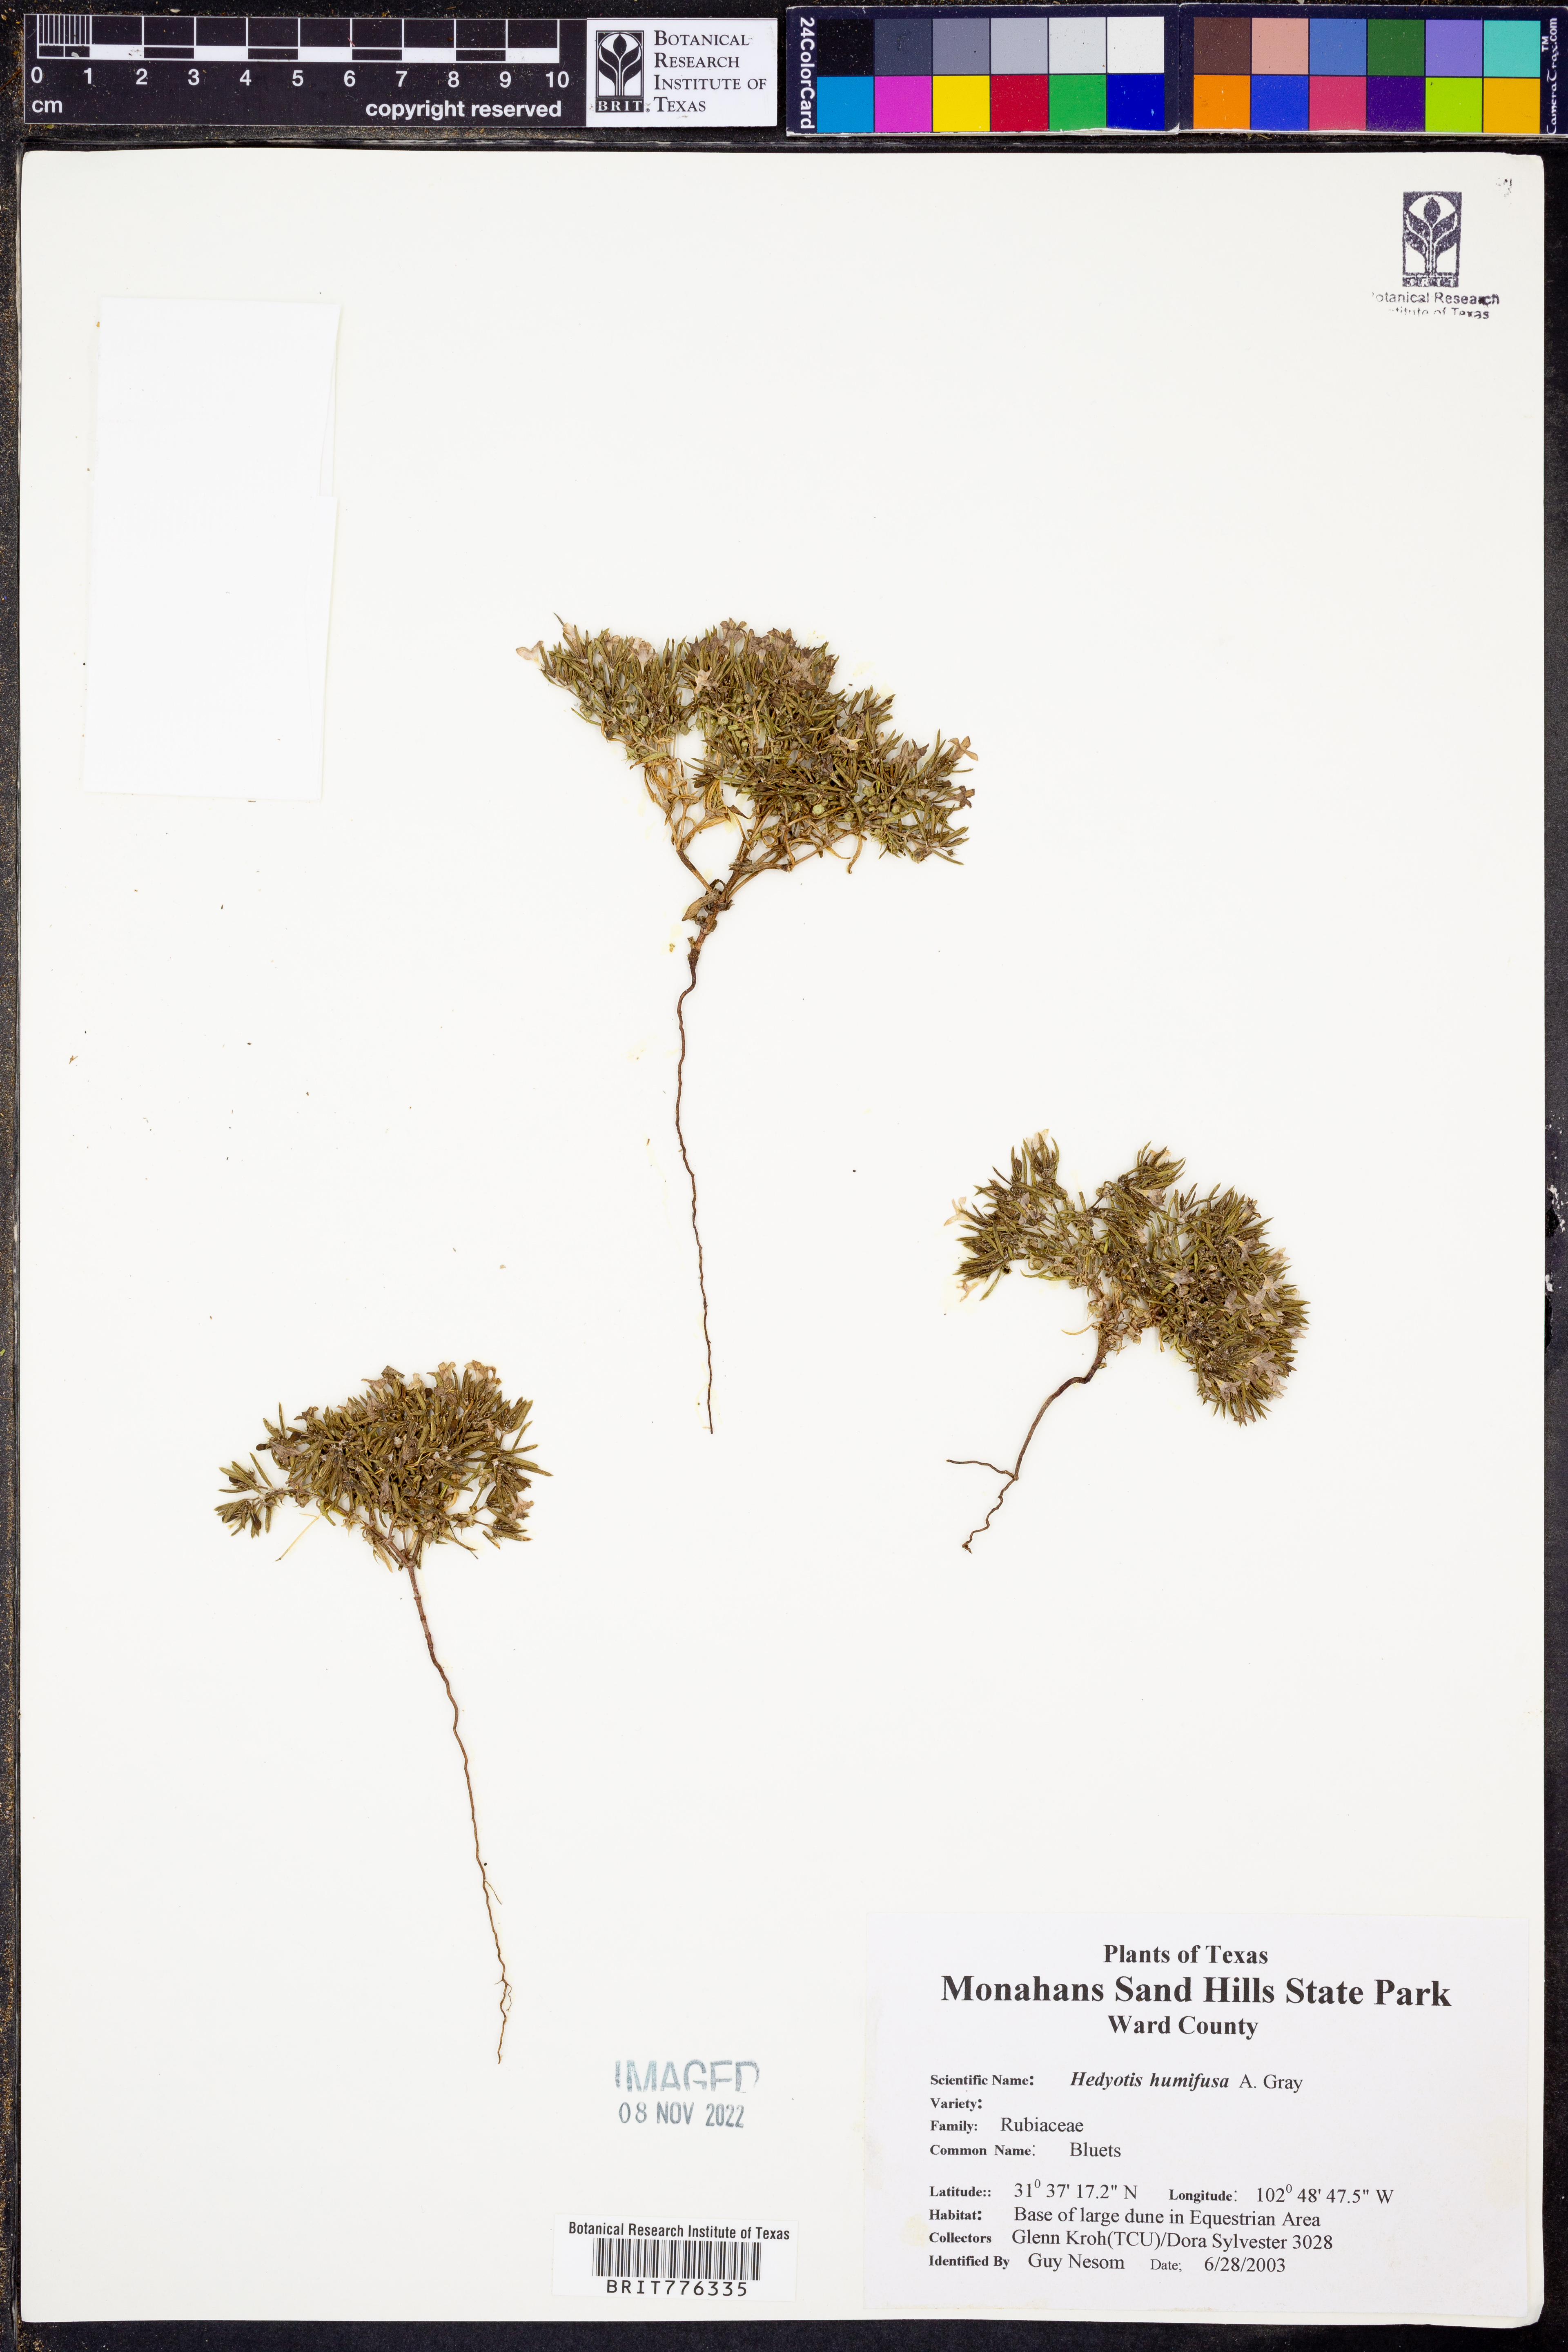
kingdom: Plantae
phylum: Tracheophyta
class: Magnoliopsida
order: Gentianales
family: Rubiaceae
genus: Houstonia
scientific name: Houstonia humifusa
